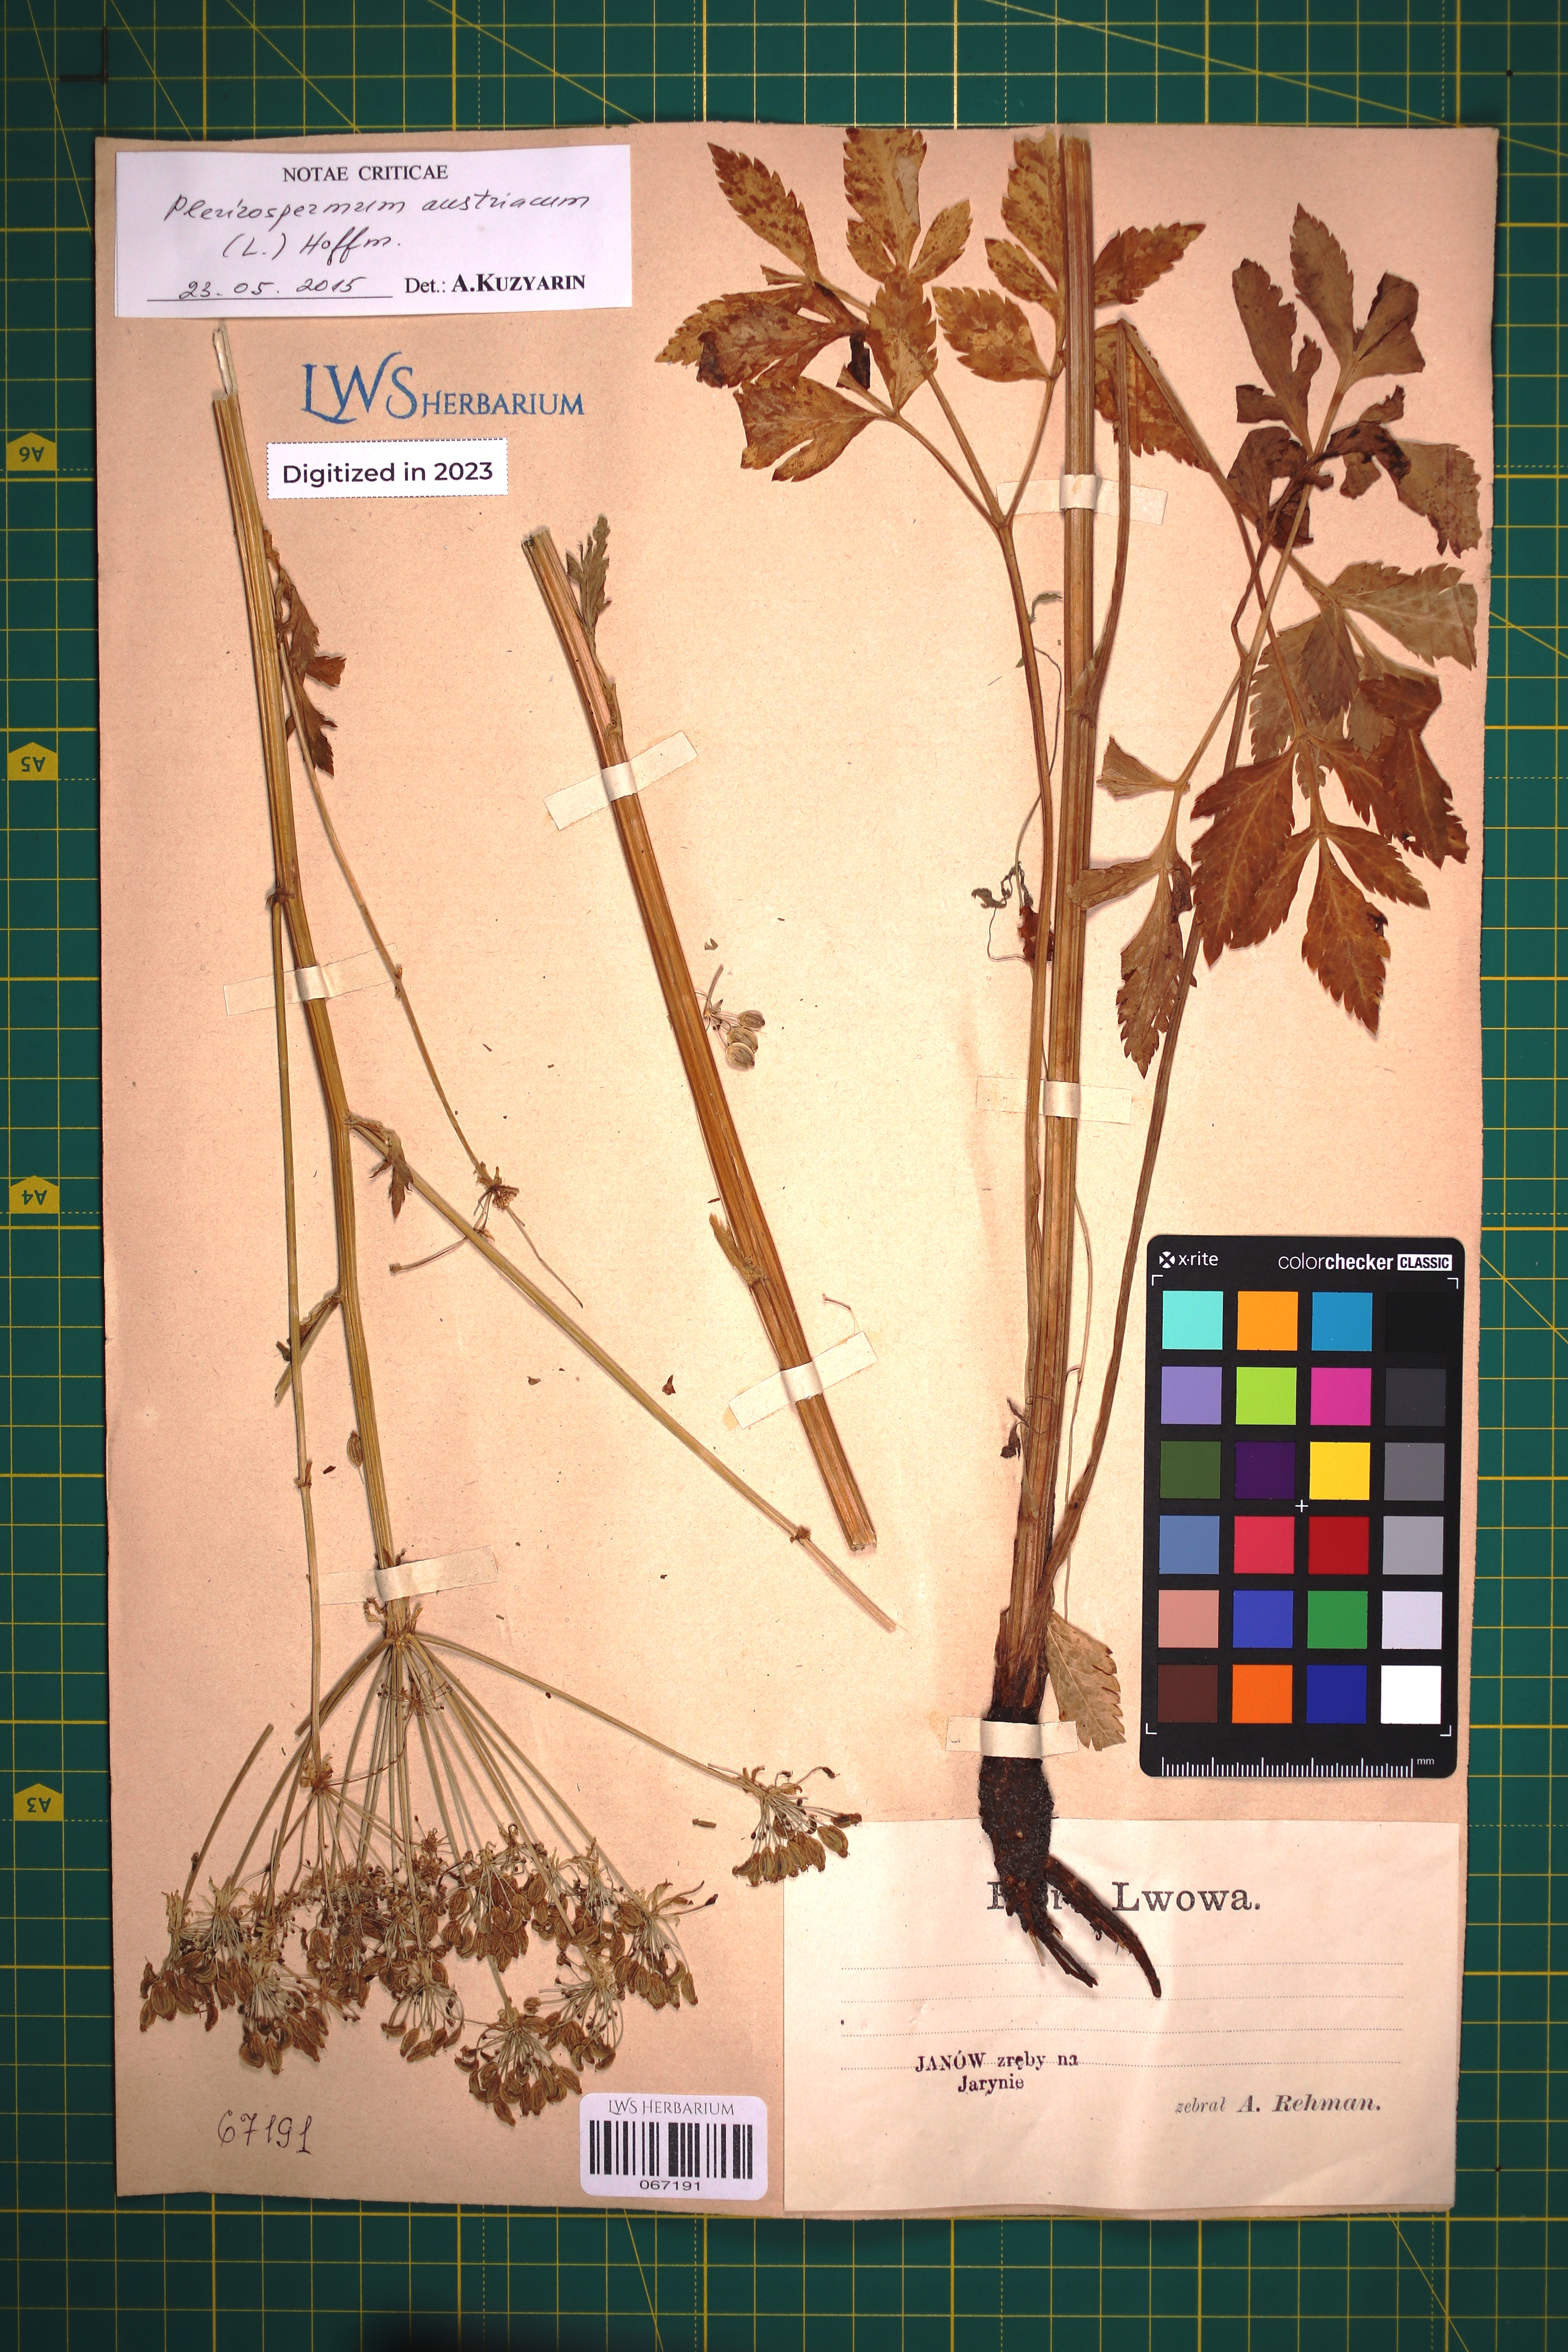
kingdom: Plantae
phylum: Tracheophyta
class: Magnoliopsida
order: Apiales
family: Apiaceae
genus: Pleurospermum
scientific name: Pleurospermum austriacum
